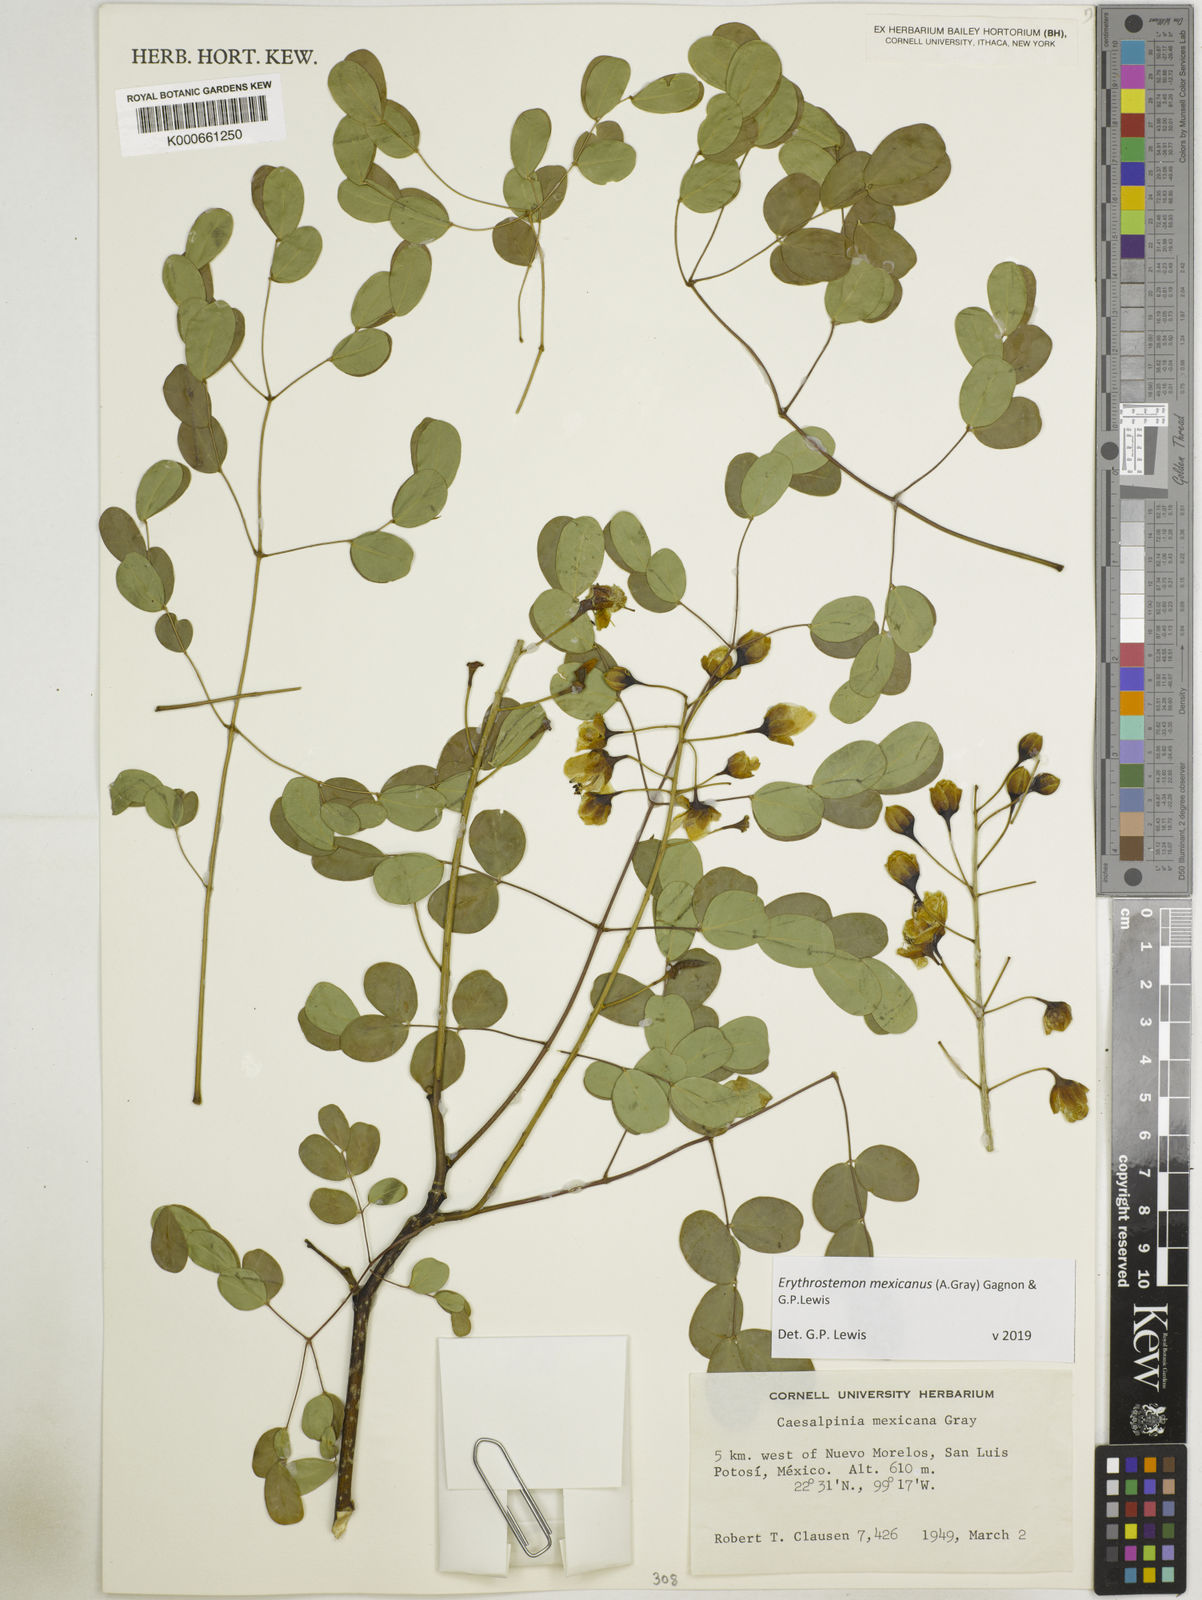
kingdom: Plantae
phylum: Tracheophyta
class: Magnoliopsida
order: Fabales
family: Fabaceae
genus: Erythrostemon
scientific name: Erythrostemon mexicanus
